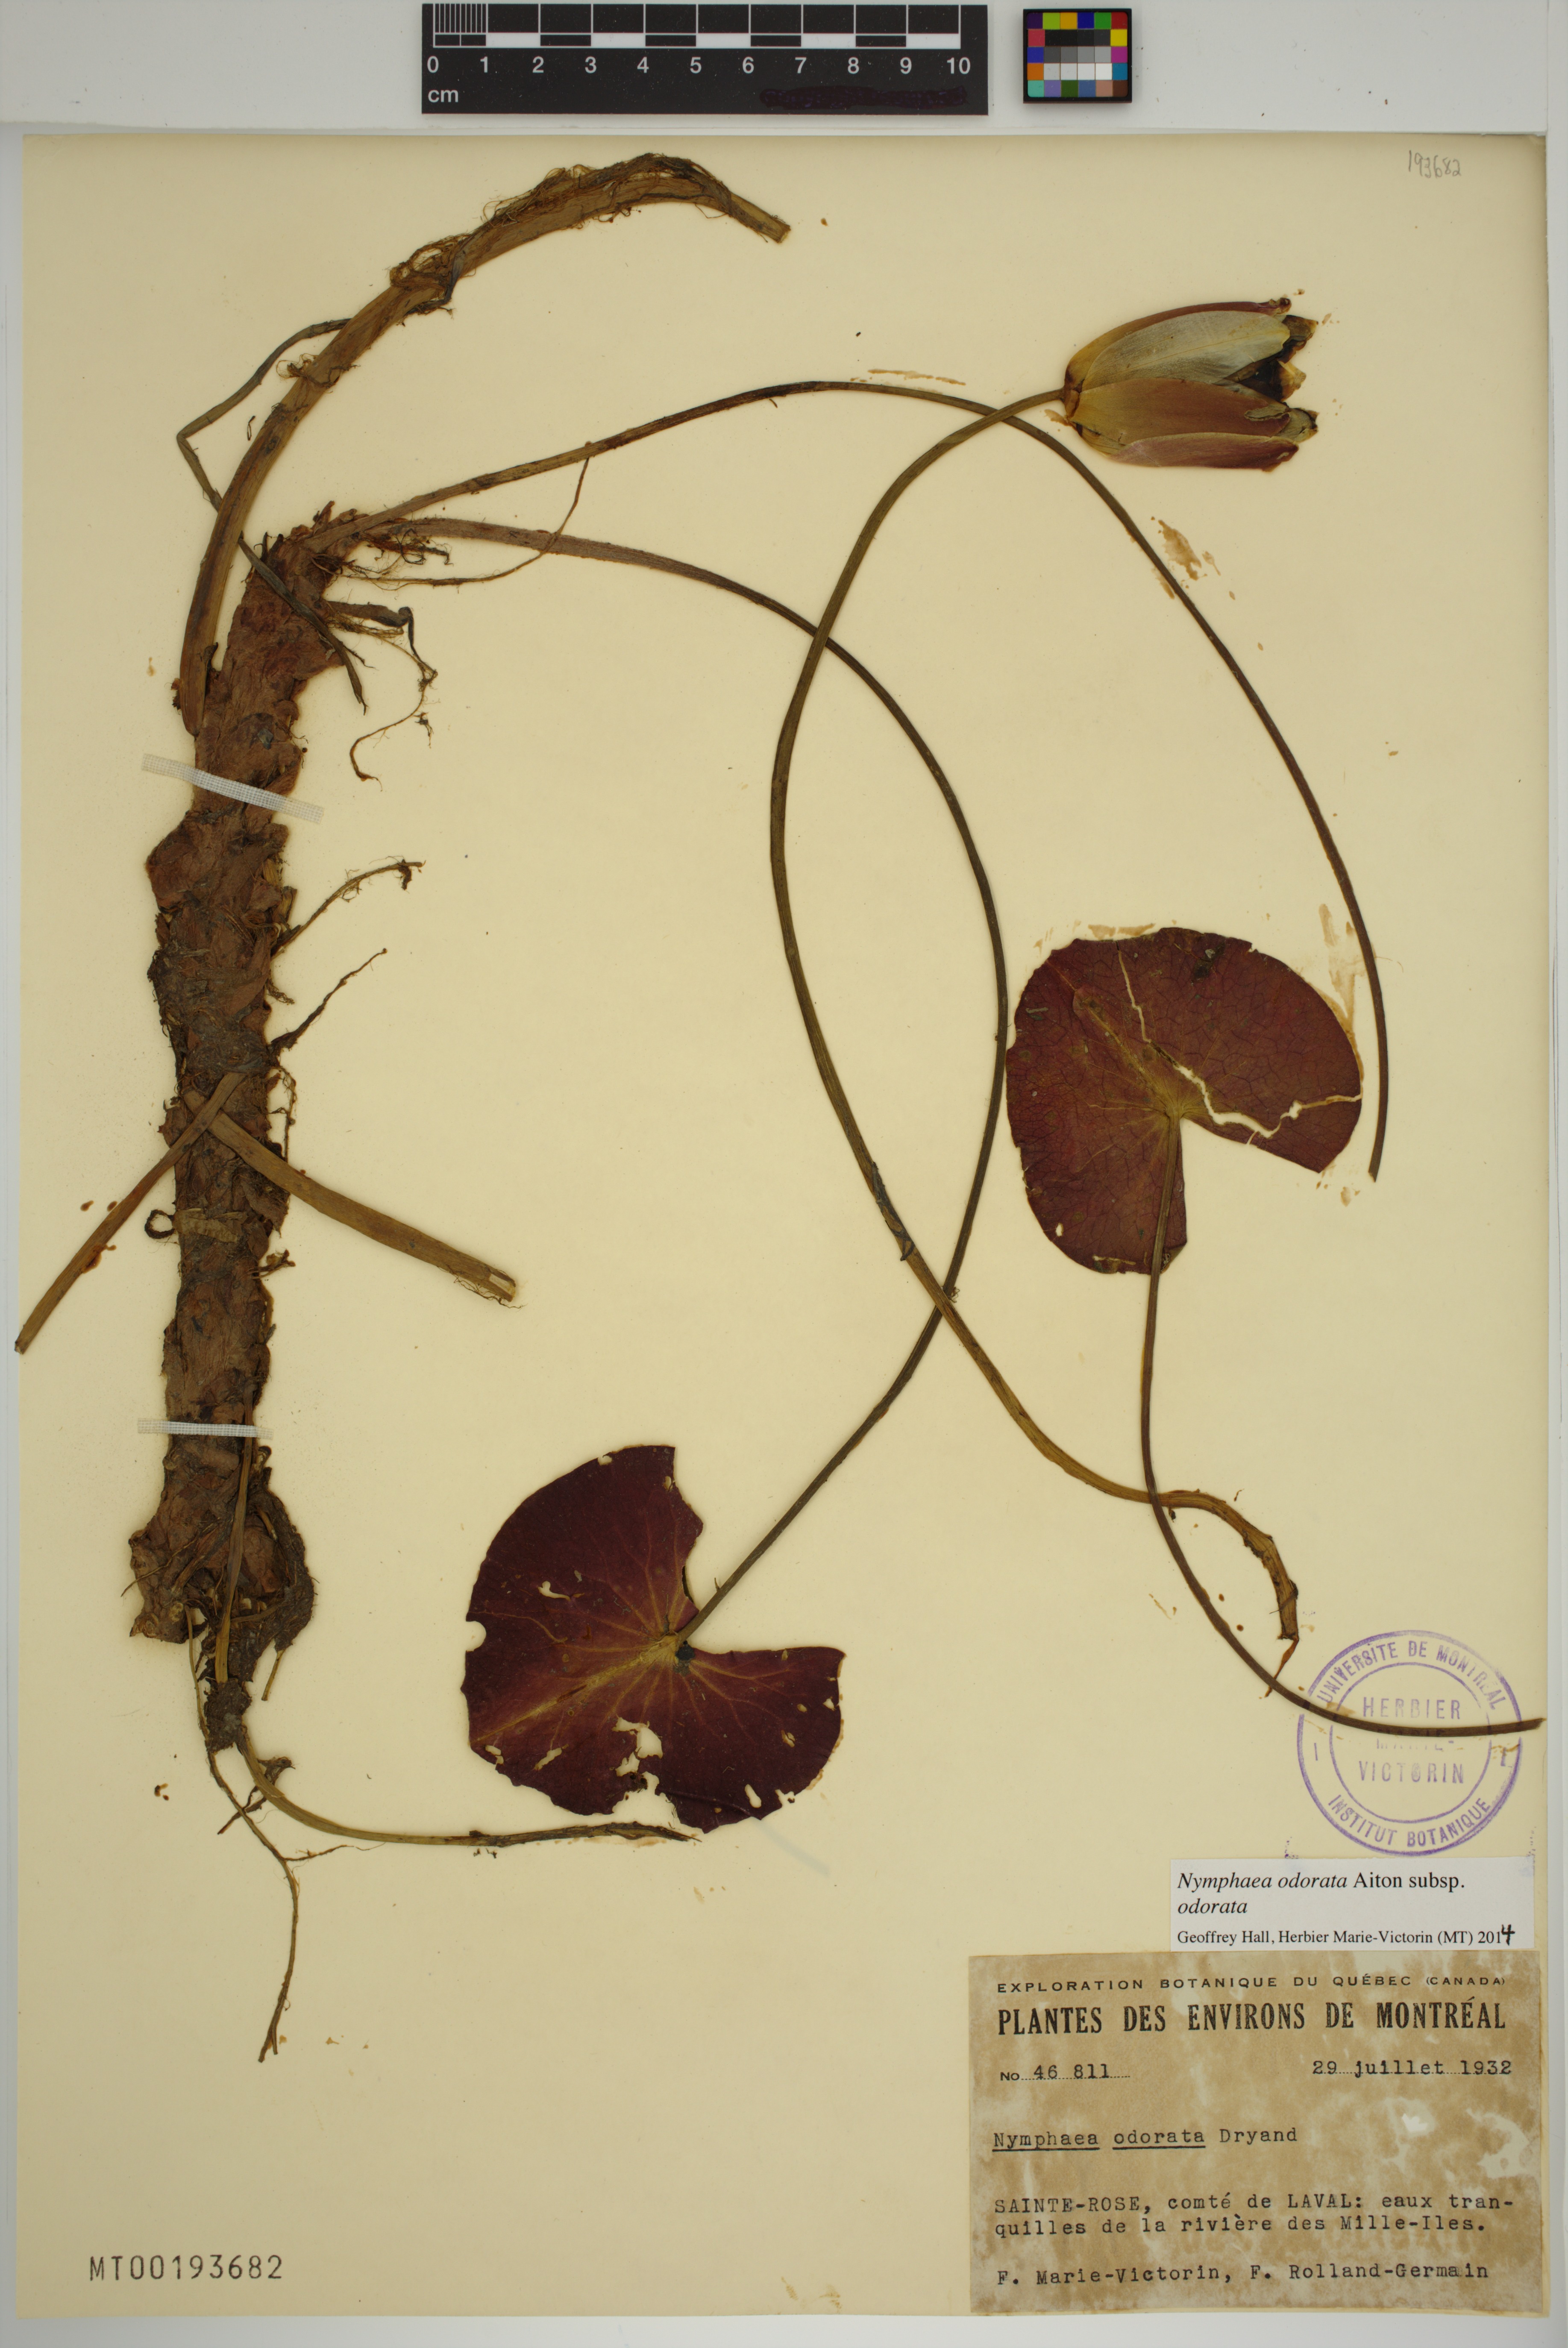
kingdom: Plantae
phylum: Tracheophyta
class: Magnoliopsida
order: Nymphaeales
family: Nymphaeaceae
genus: Nymphaea
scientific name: Nymphaea odorata
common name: Fragrant water-lily
